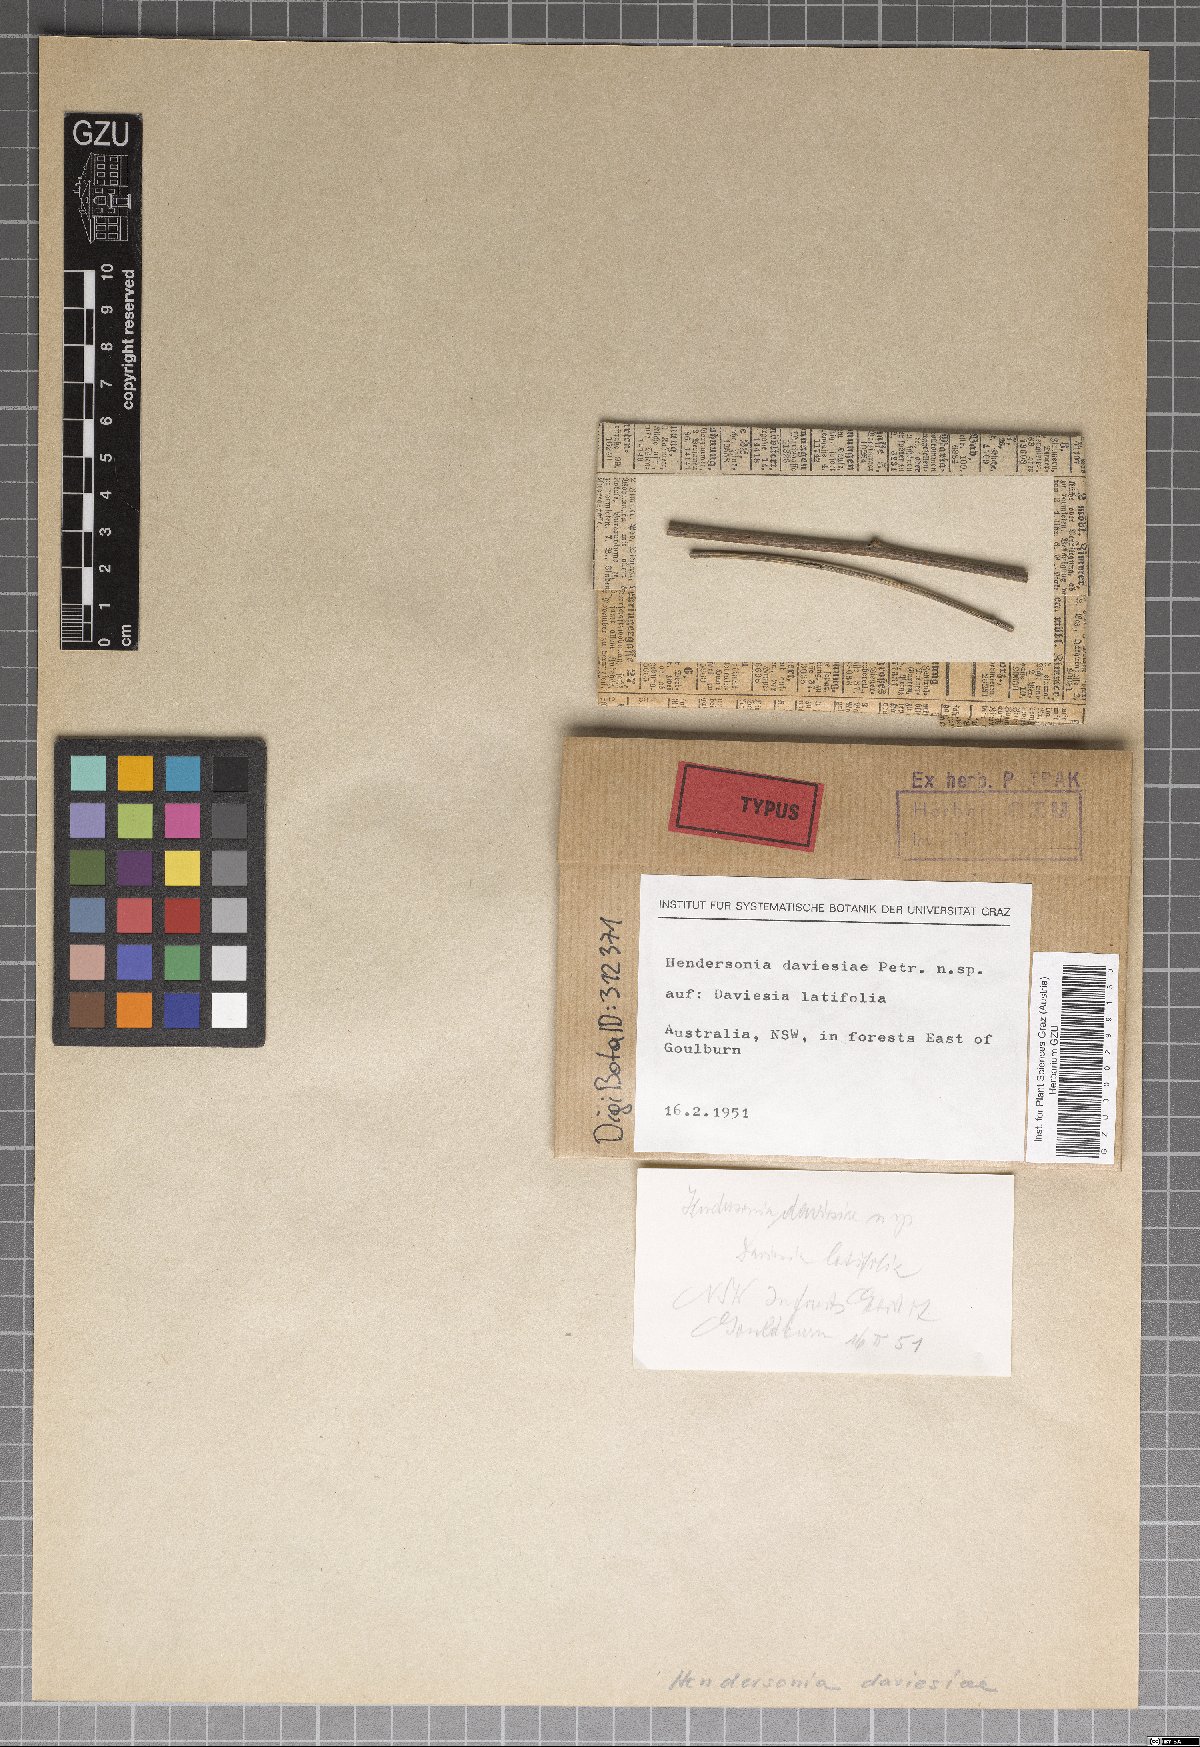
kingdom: Fungi
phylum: Ascomycota
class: Dothideomycetes
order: Pleosporales
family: Phaeosphaeriaceae
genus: Hendersonia
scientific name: Hendersonia daviesiae
